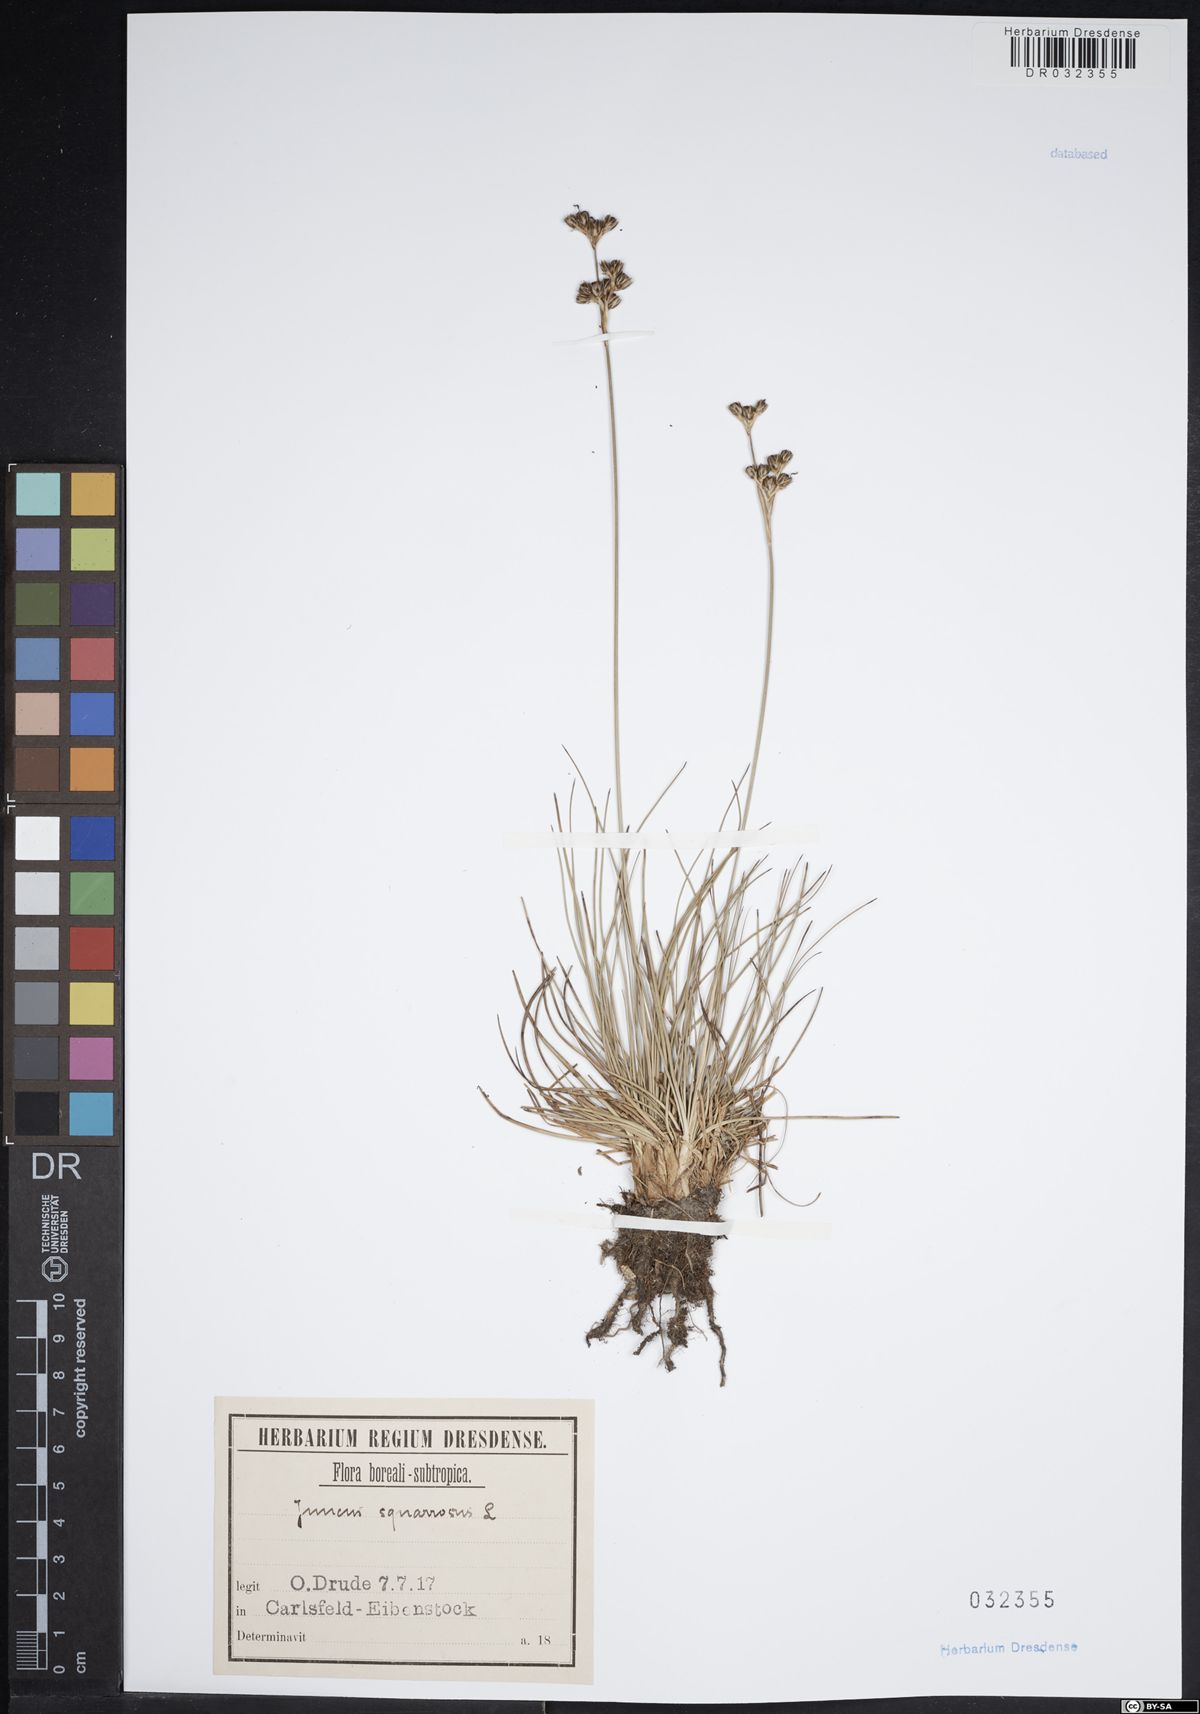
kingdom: Plantae
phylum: Tracheophyta
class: Liliopsida
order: Poales
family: Juncaceae
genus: Juncus
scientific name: Juncus squarrosus
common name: Heath rush
